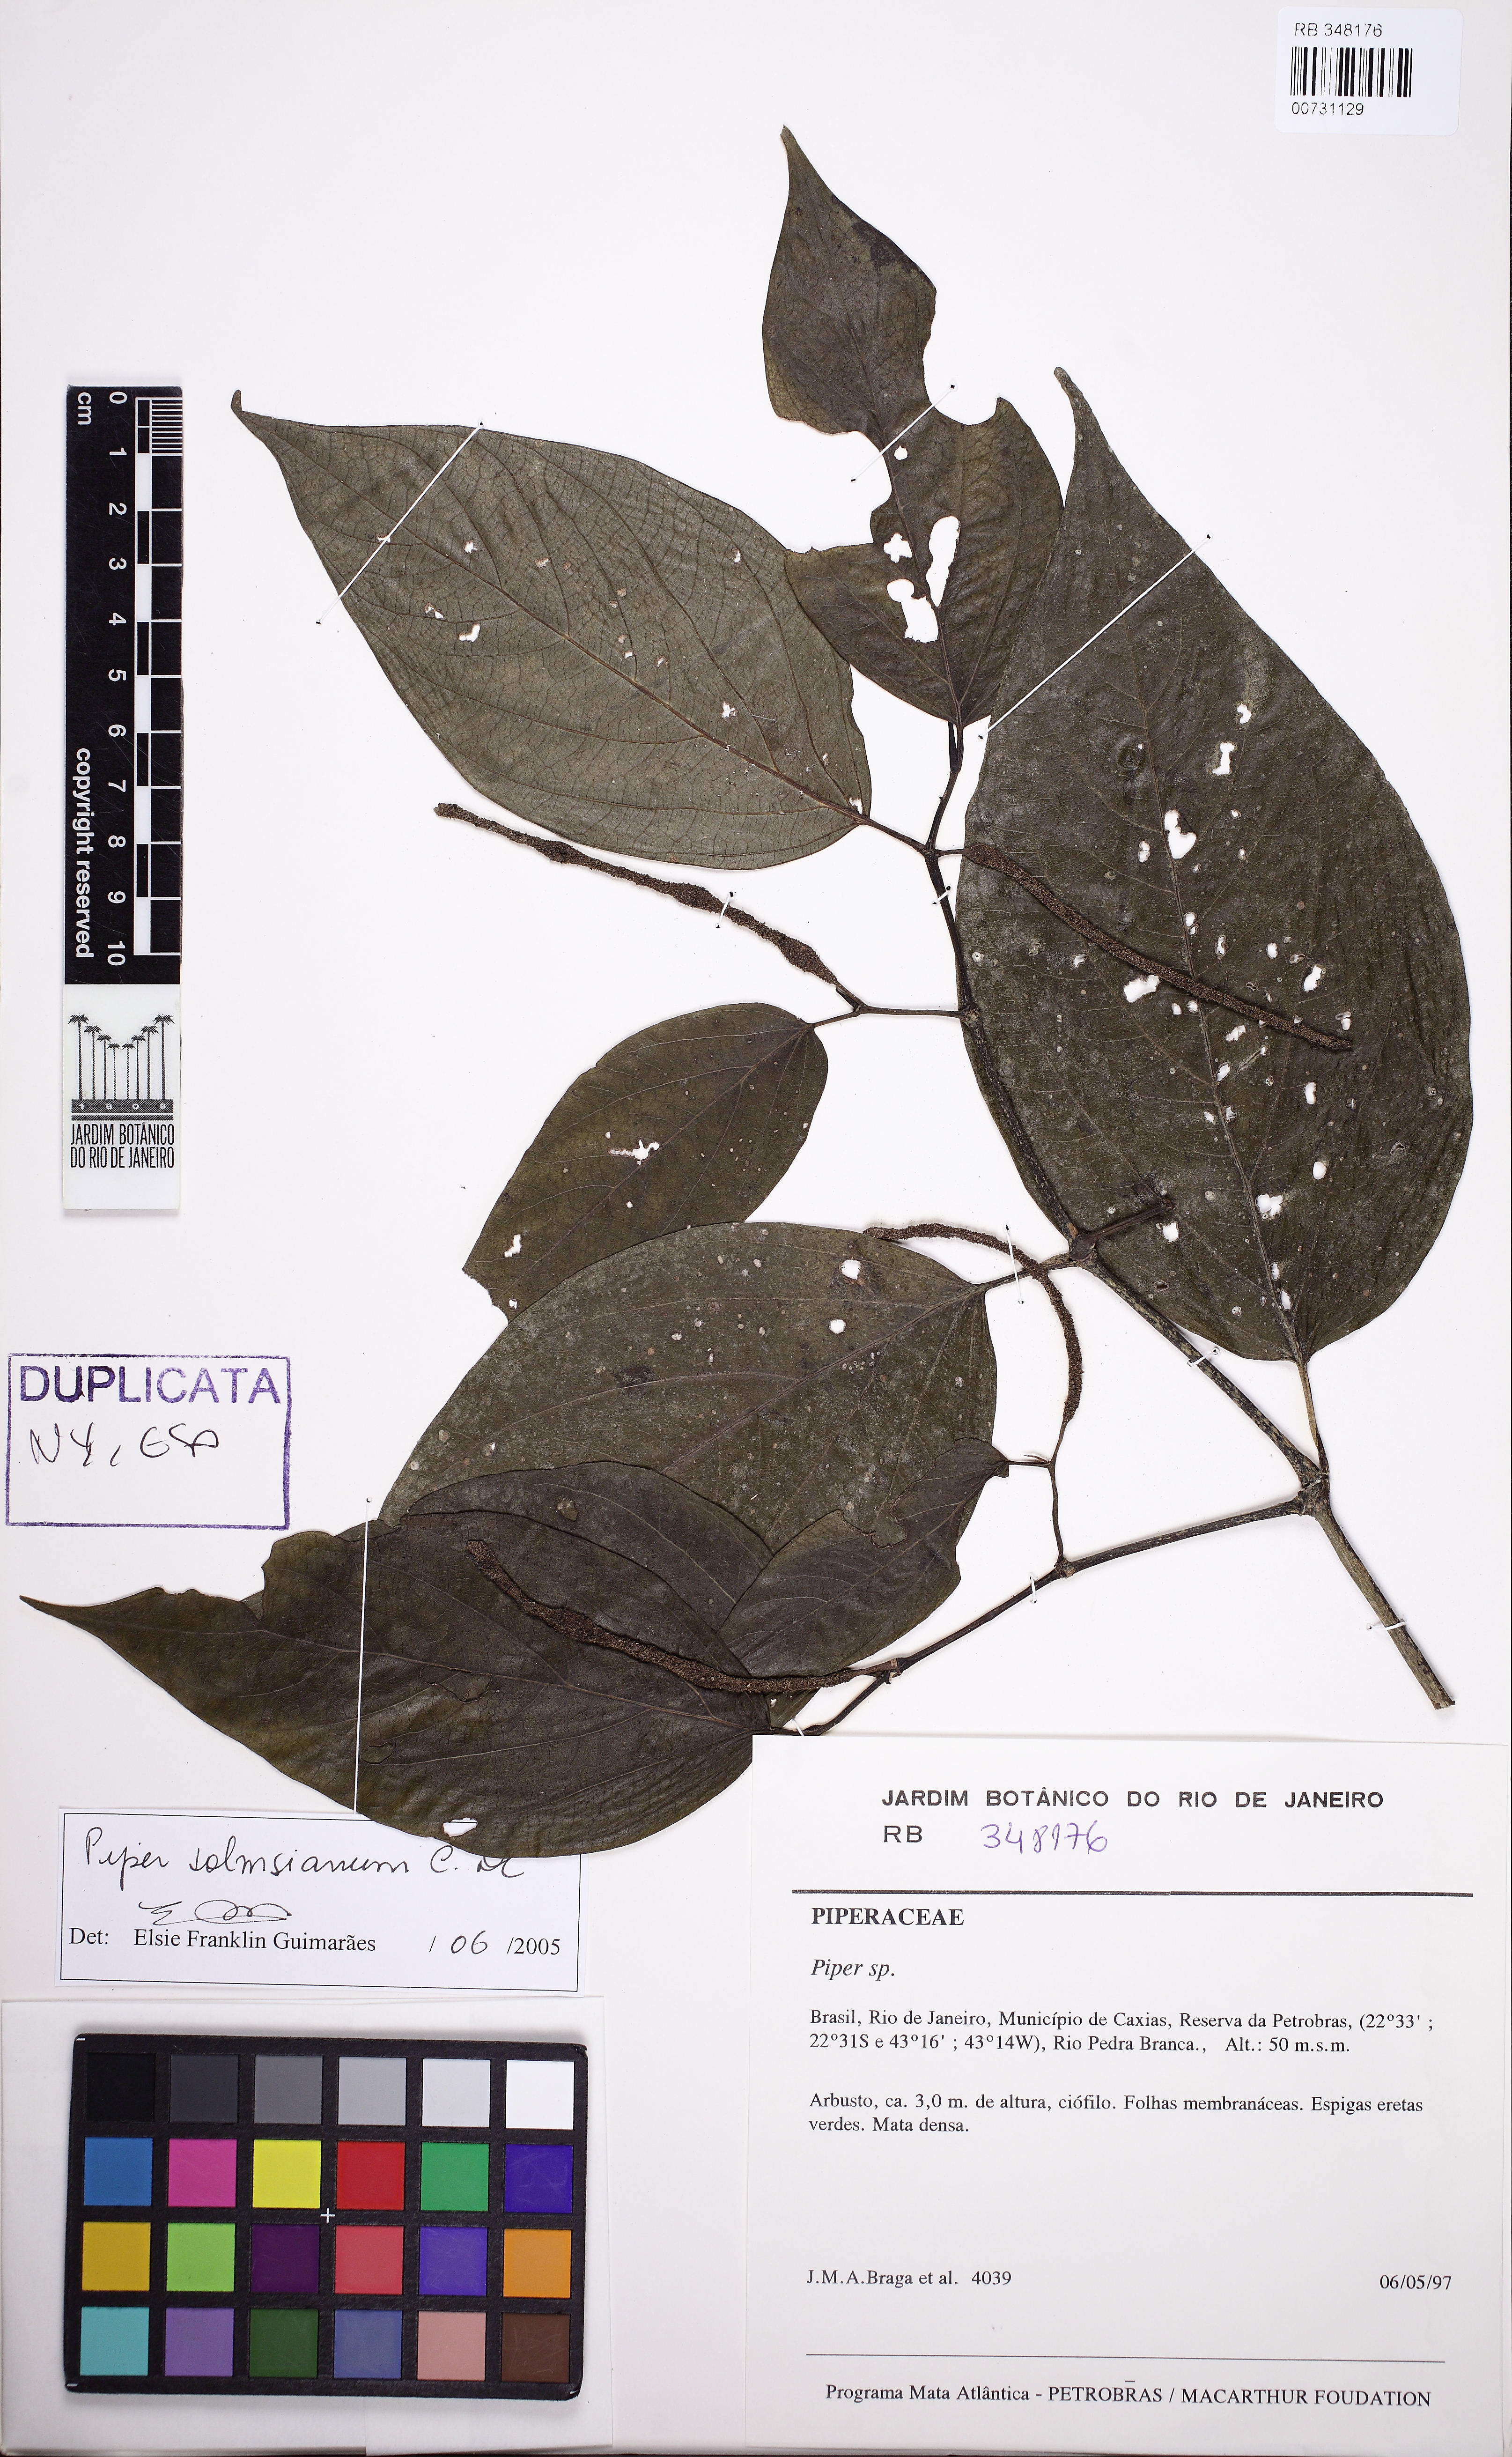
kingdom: Plantae
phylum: Tracheophyta
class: Magnoliopsida
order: Piperales
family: Piperaceae
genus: Piper
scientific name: Piper lepturum
